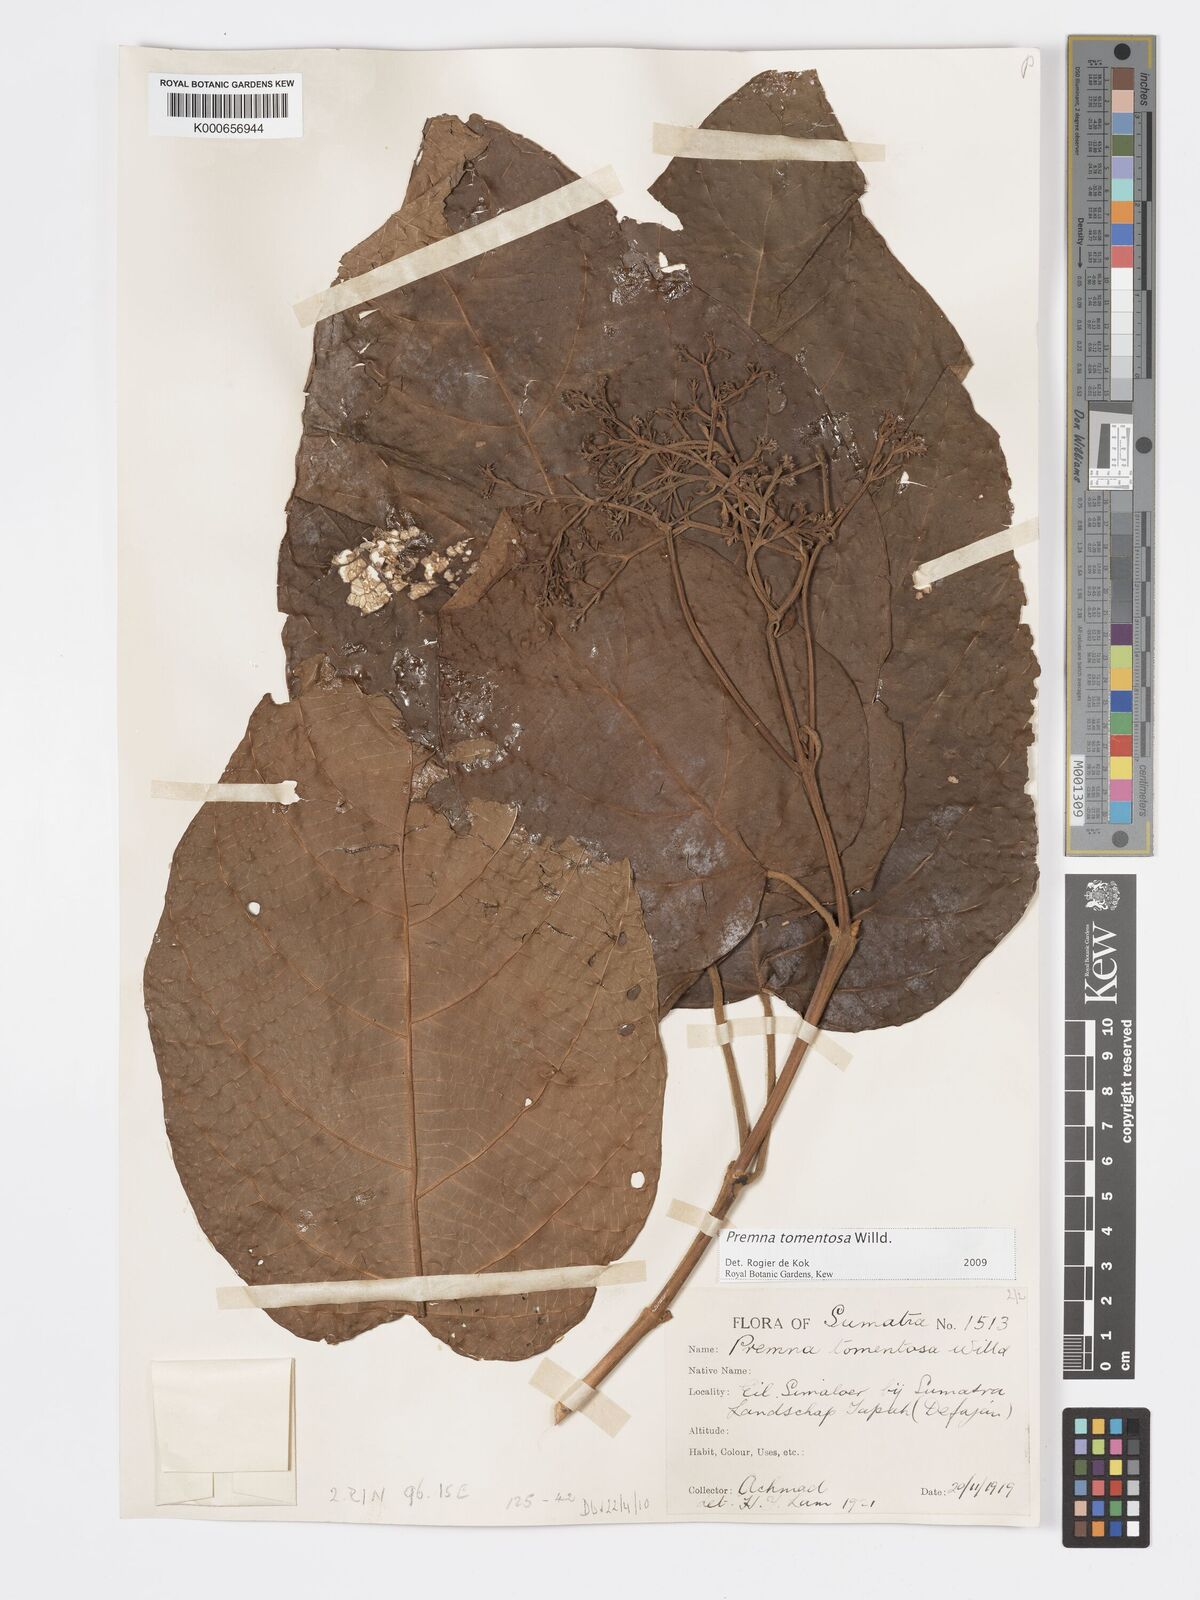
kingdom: Plantae
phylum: Tracheophyta
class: Magnoliopsida
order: Lamiales
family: Lamiaceae
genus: Premna
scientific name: Premna tomentosa
